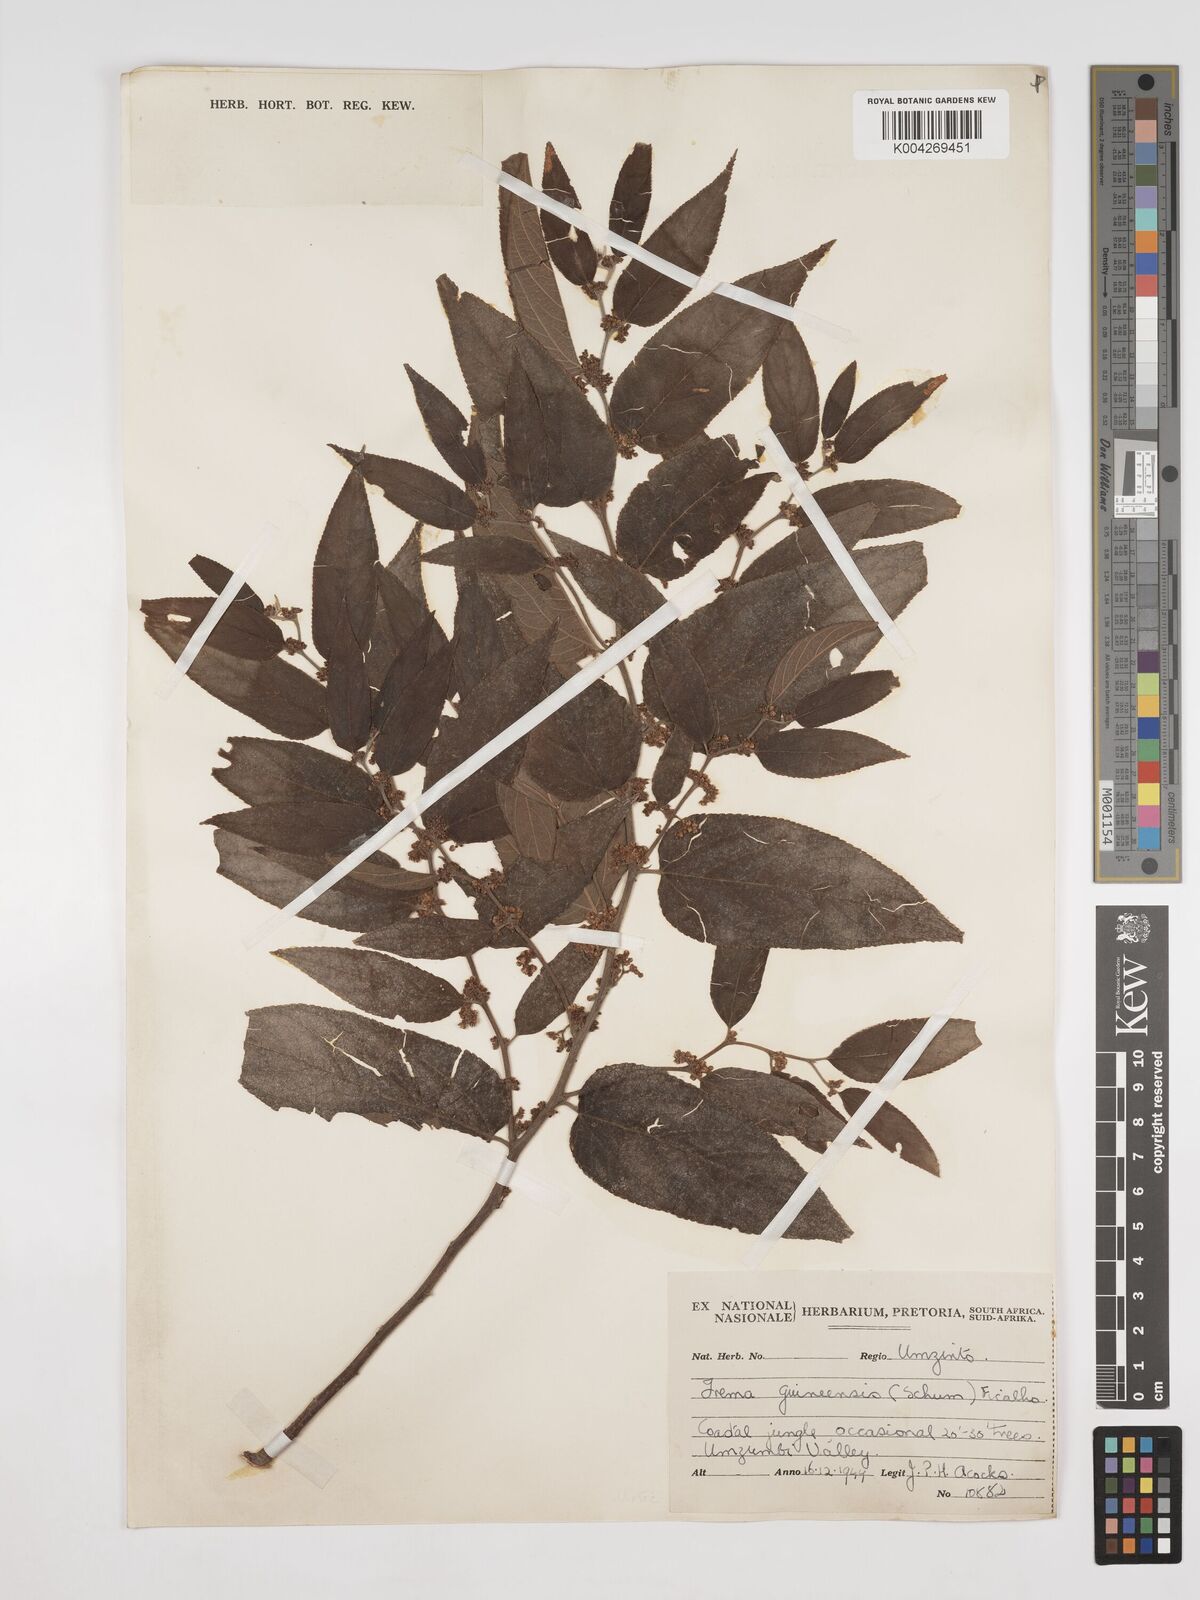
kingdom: Plantae
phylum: Tracheophyta
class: Magnoliopsida
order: Rosales
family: Cannabaceae
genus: Trema
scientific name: Trema orientale
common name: Indian charcoal tree
